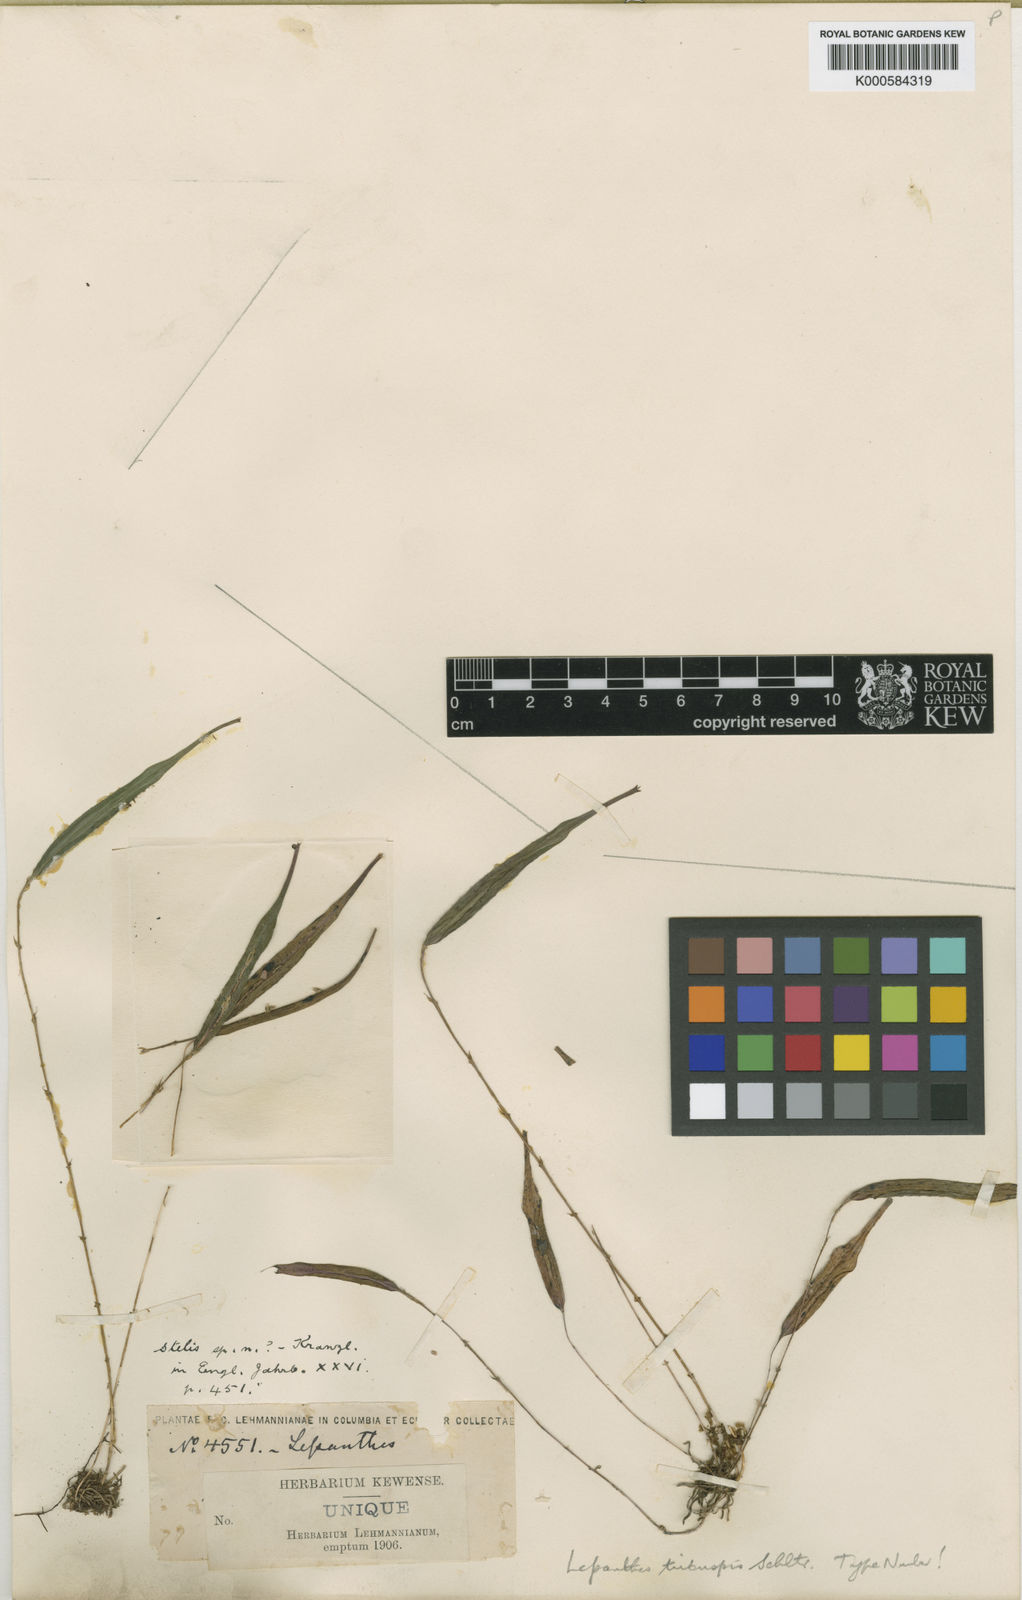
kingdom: Plantae
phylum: Tracheophyta
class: Liliopsida
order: Asparagales
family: Orchidaceae
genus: Lepanthes
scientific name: Lepanthes mucronata
